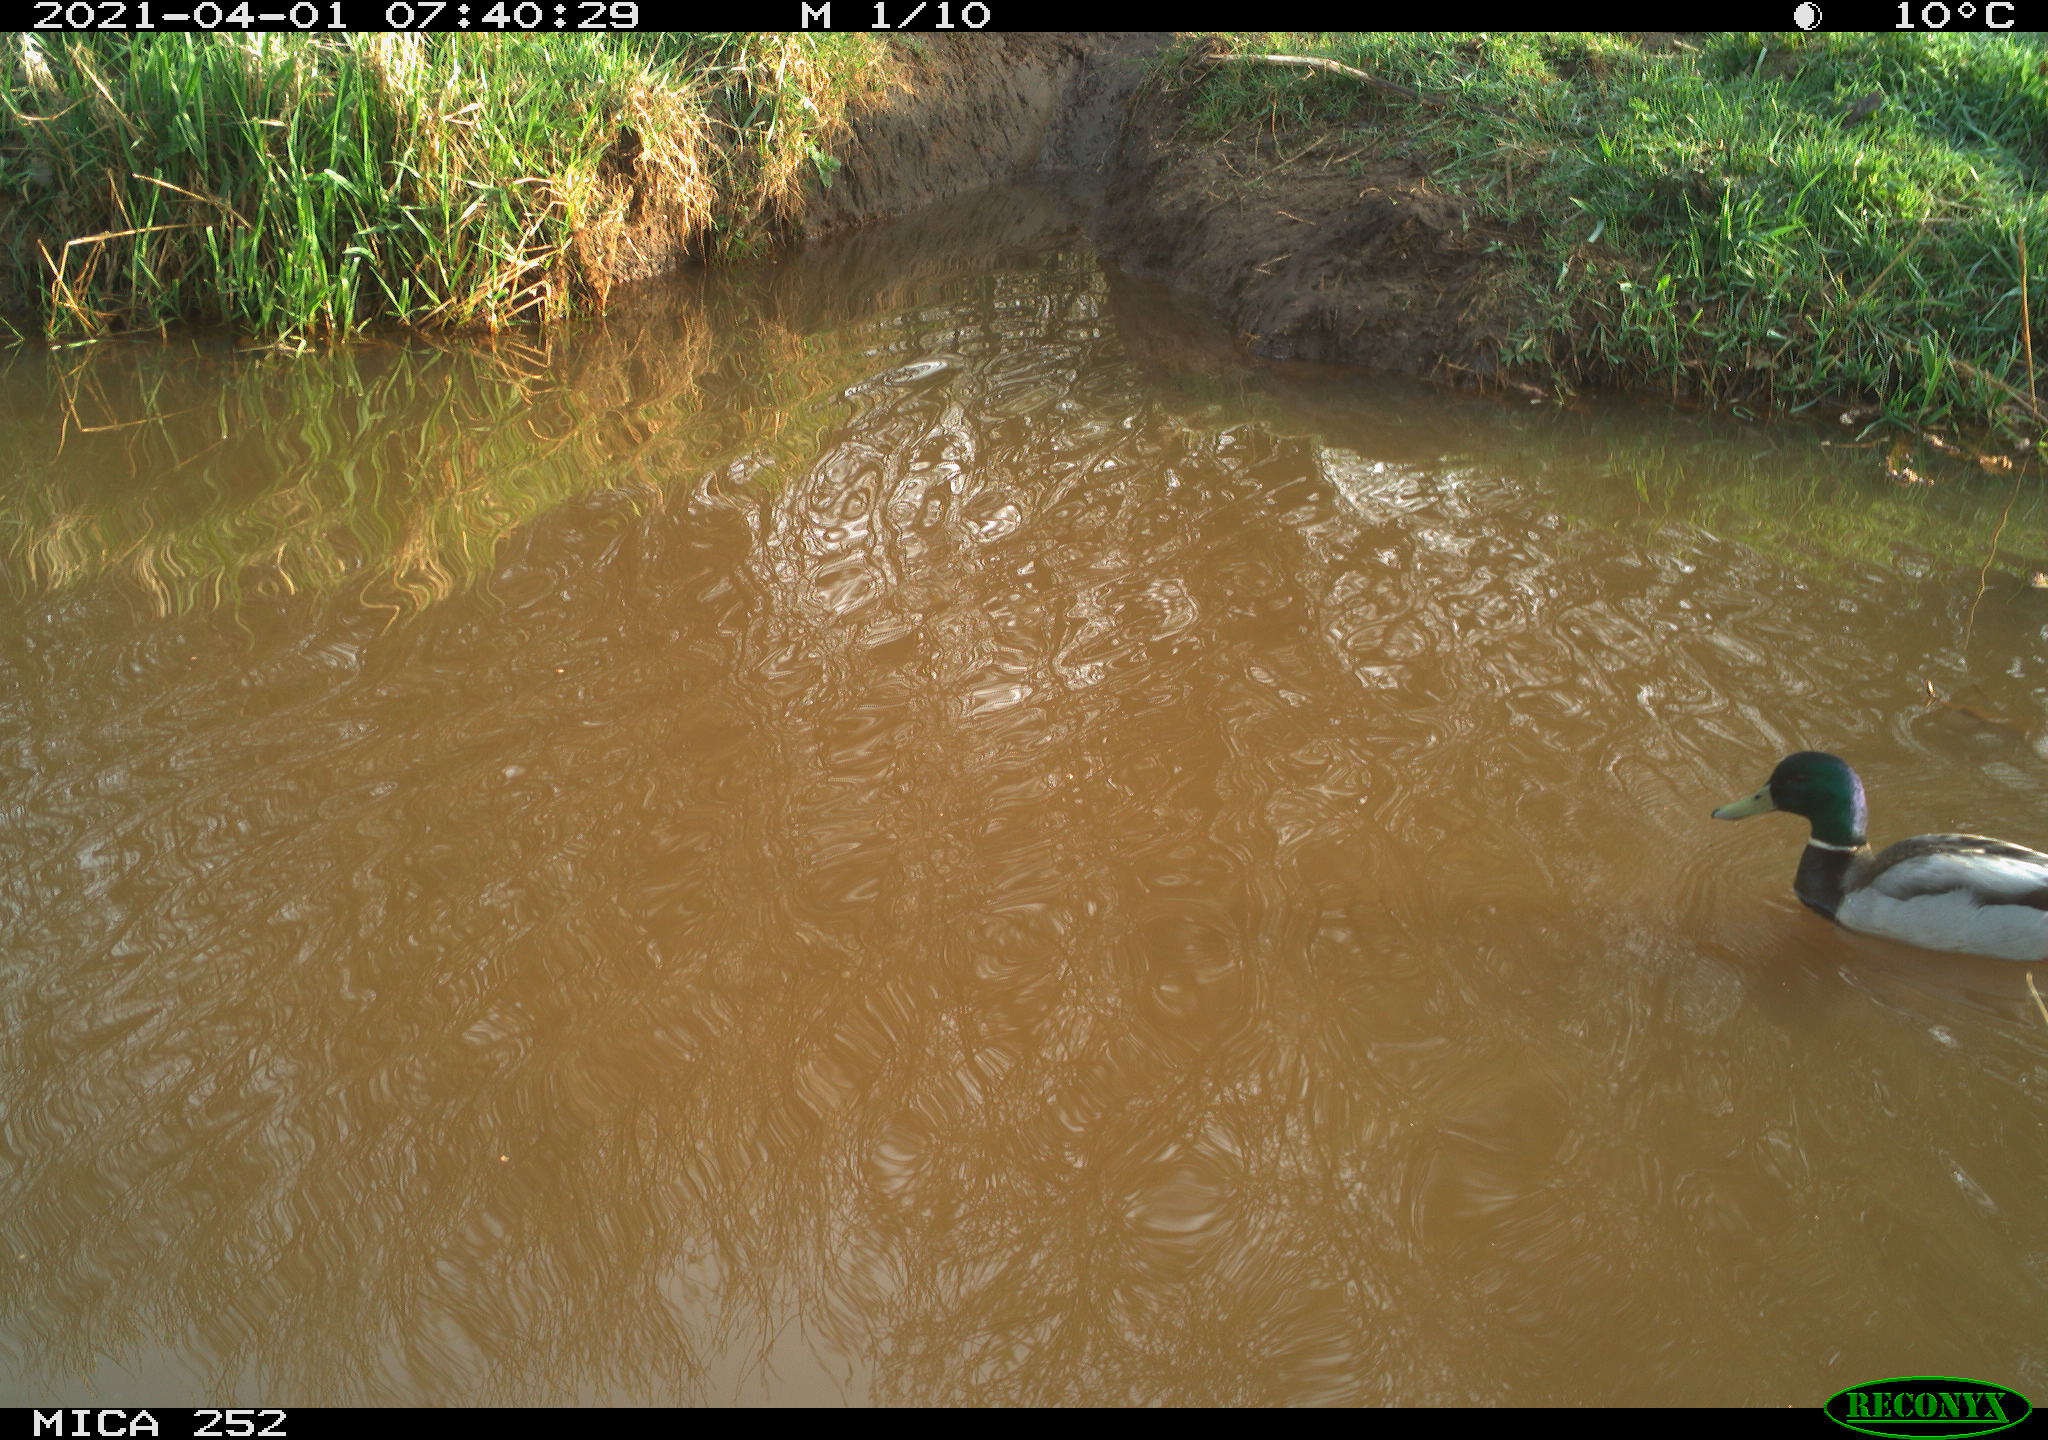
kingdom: Animalia
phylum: Chordata
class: Aves
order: Anseriformes
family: Anatidae
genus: Anas
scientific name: Anas platyrhynchos
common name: Mallard
